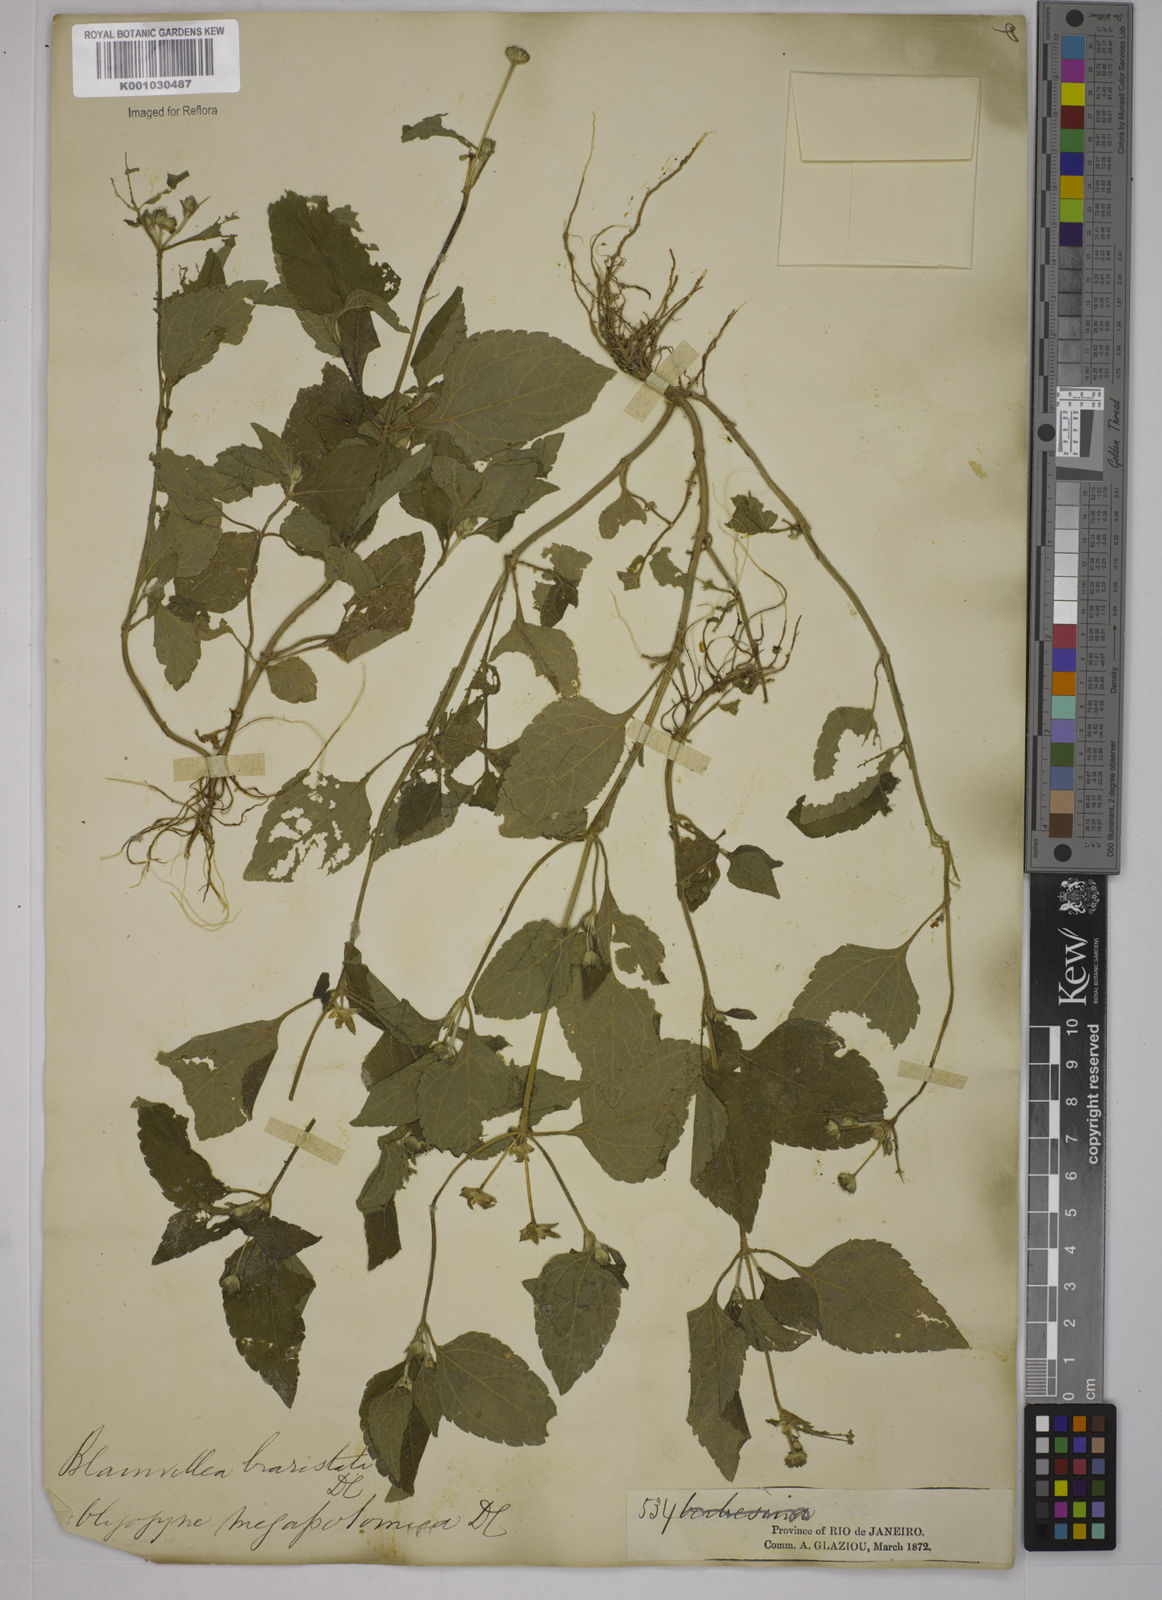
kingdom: Plantae
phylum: Tracheophyta
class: Magnoliopsida
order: Asterales
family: Asteraceae
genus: Blainvillea
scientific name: Blainvillea
